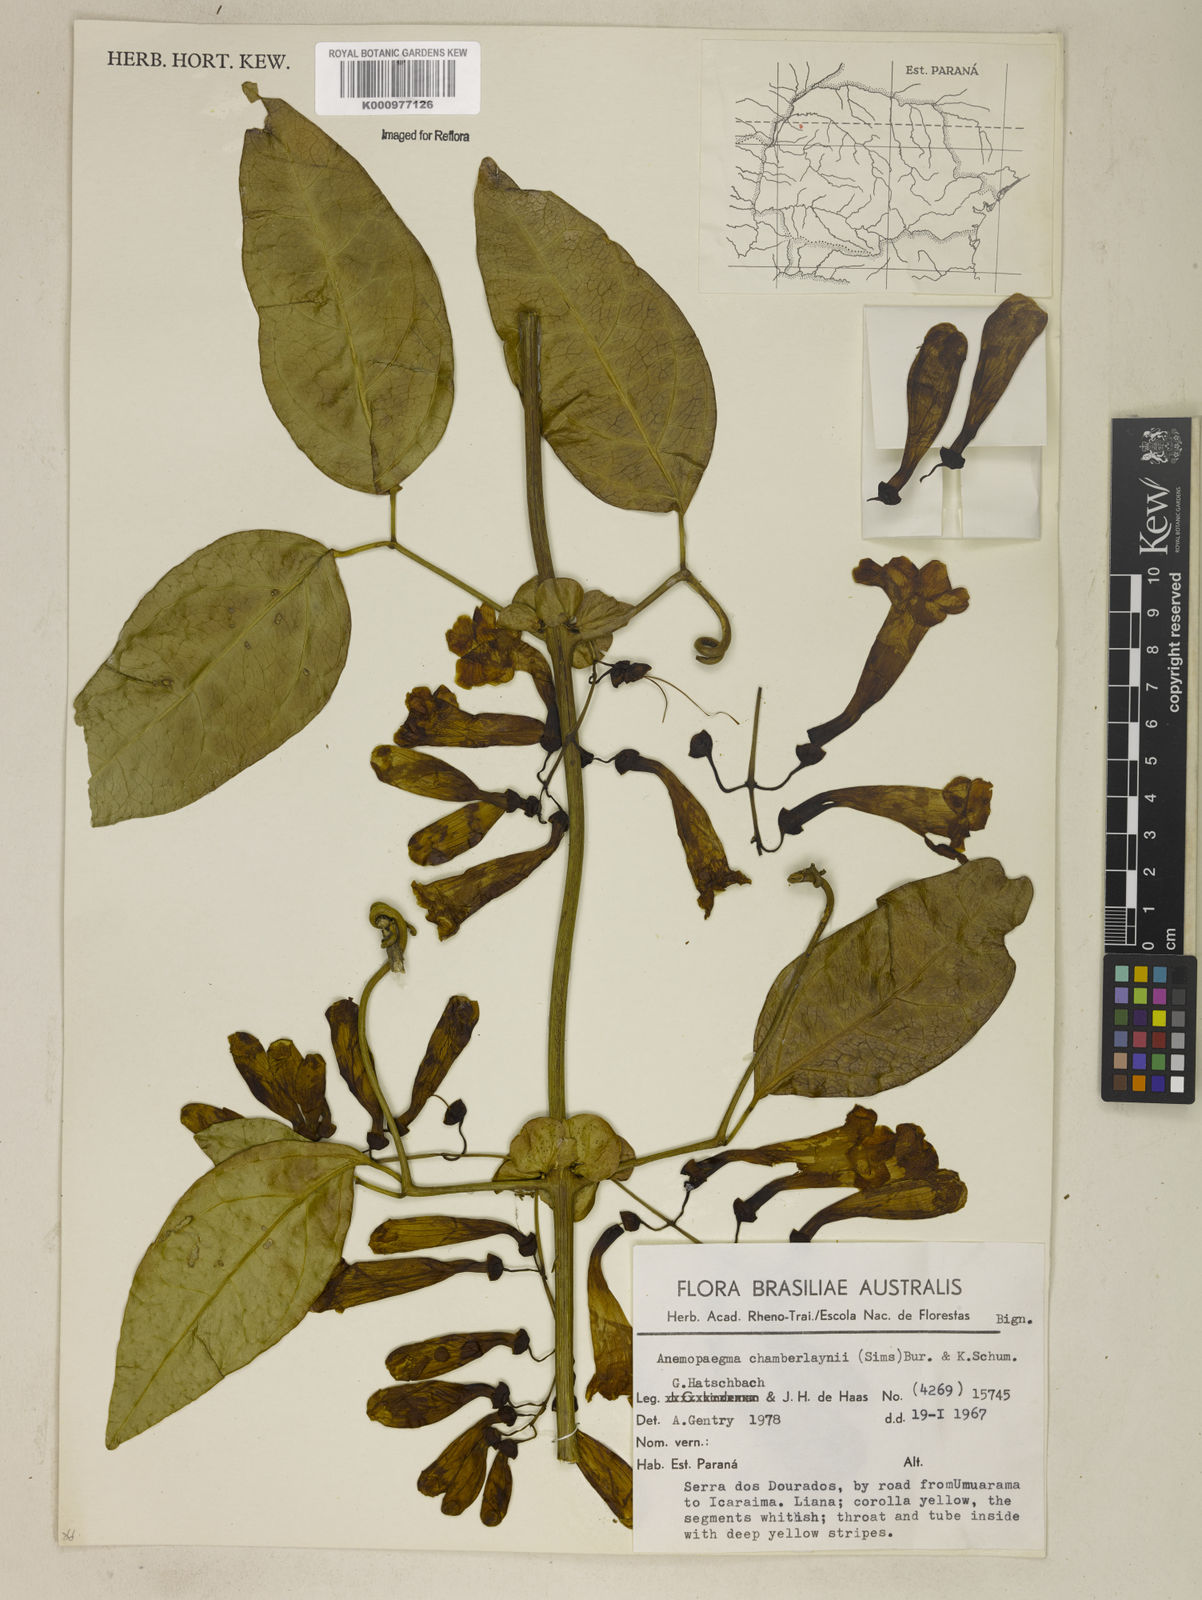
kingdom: Plantae
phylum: Tracheophyta
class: Magnoliopsida
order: Lamiales
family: Bignoniaceae
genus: Anemopaegma
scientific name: Anemopaegma chamberlaynii
